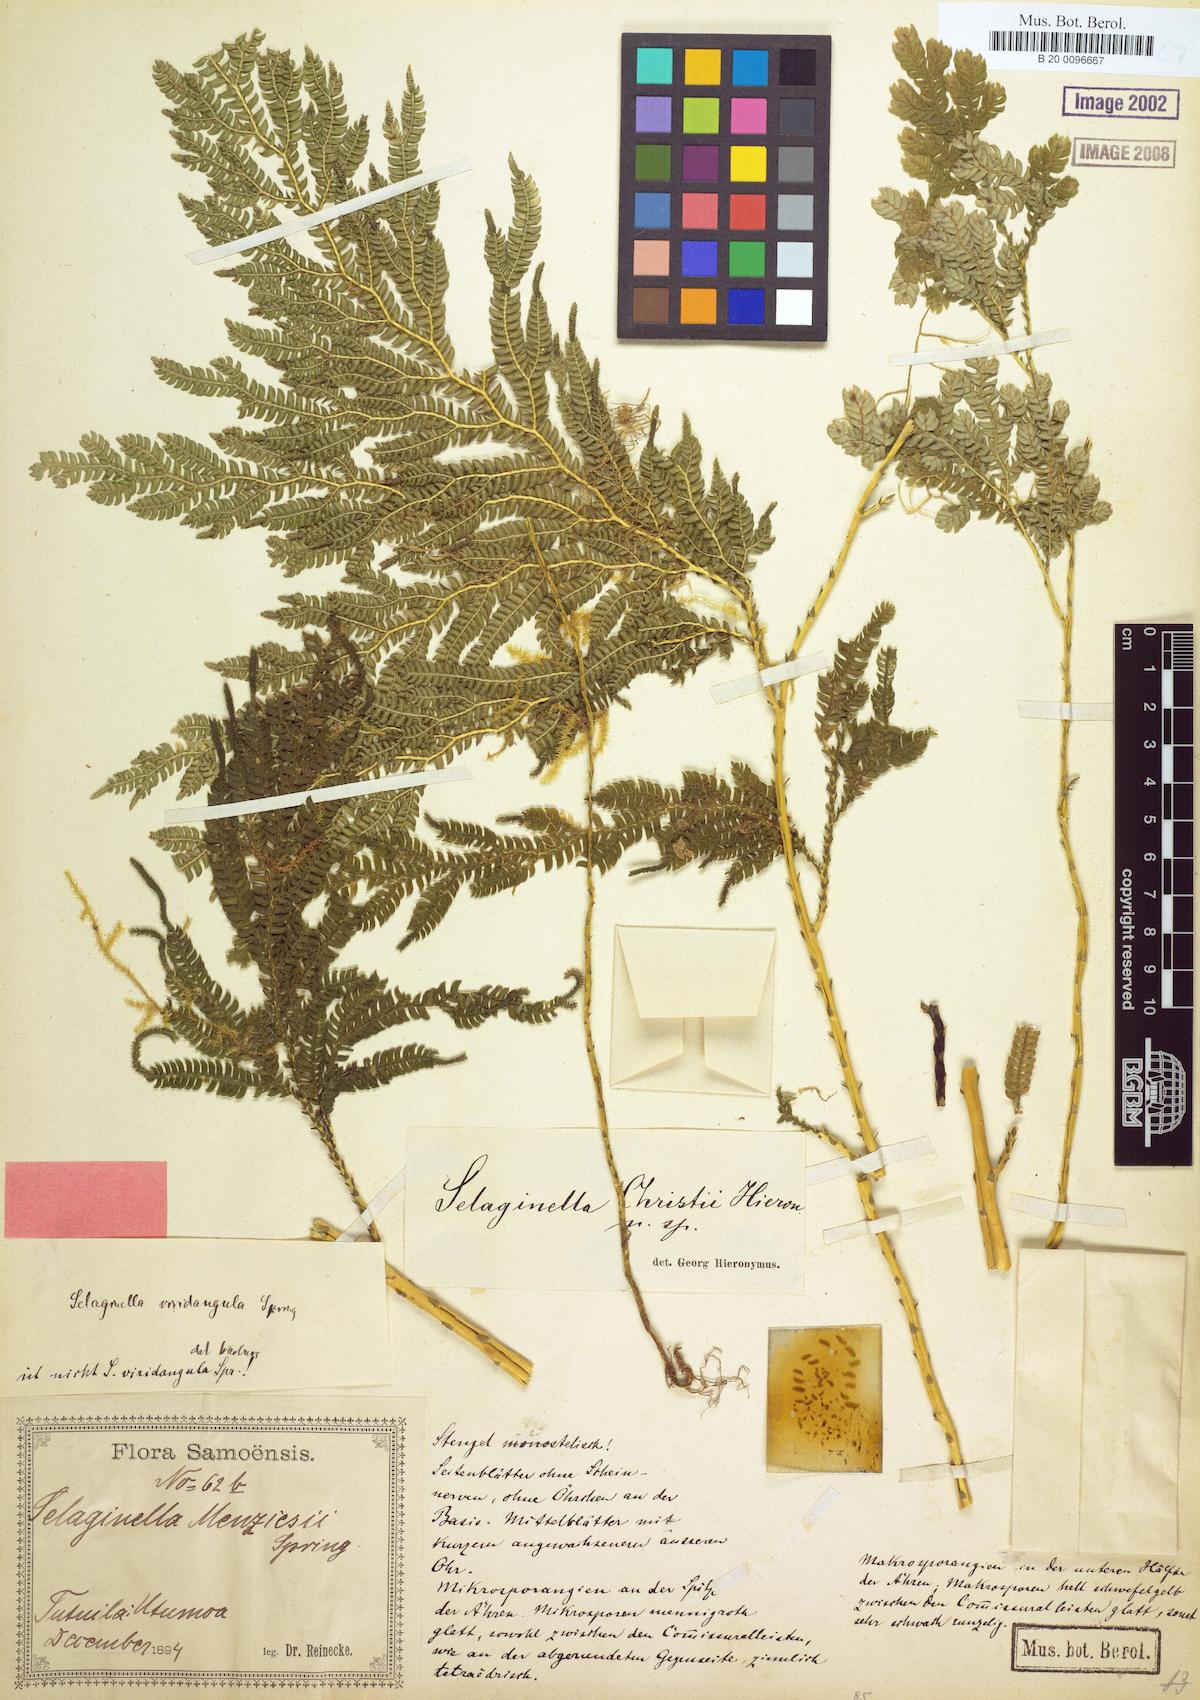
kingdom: Plantae
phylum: Tracheophyta
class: Lycopodiopsida
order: Selaginellales
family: Selaginellaceae
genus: Selaginella
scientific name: Selaginella whitmeei
